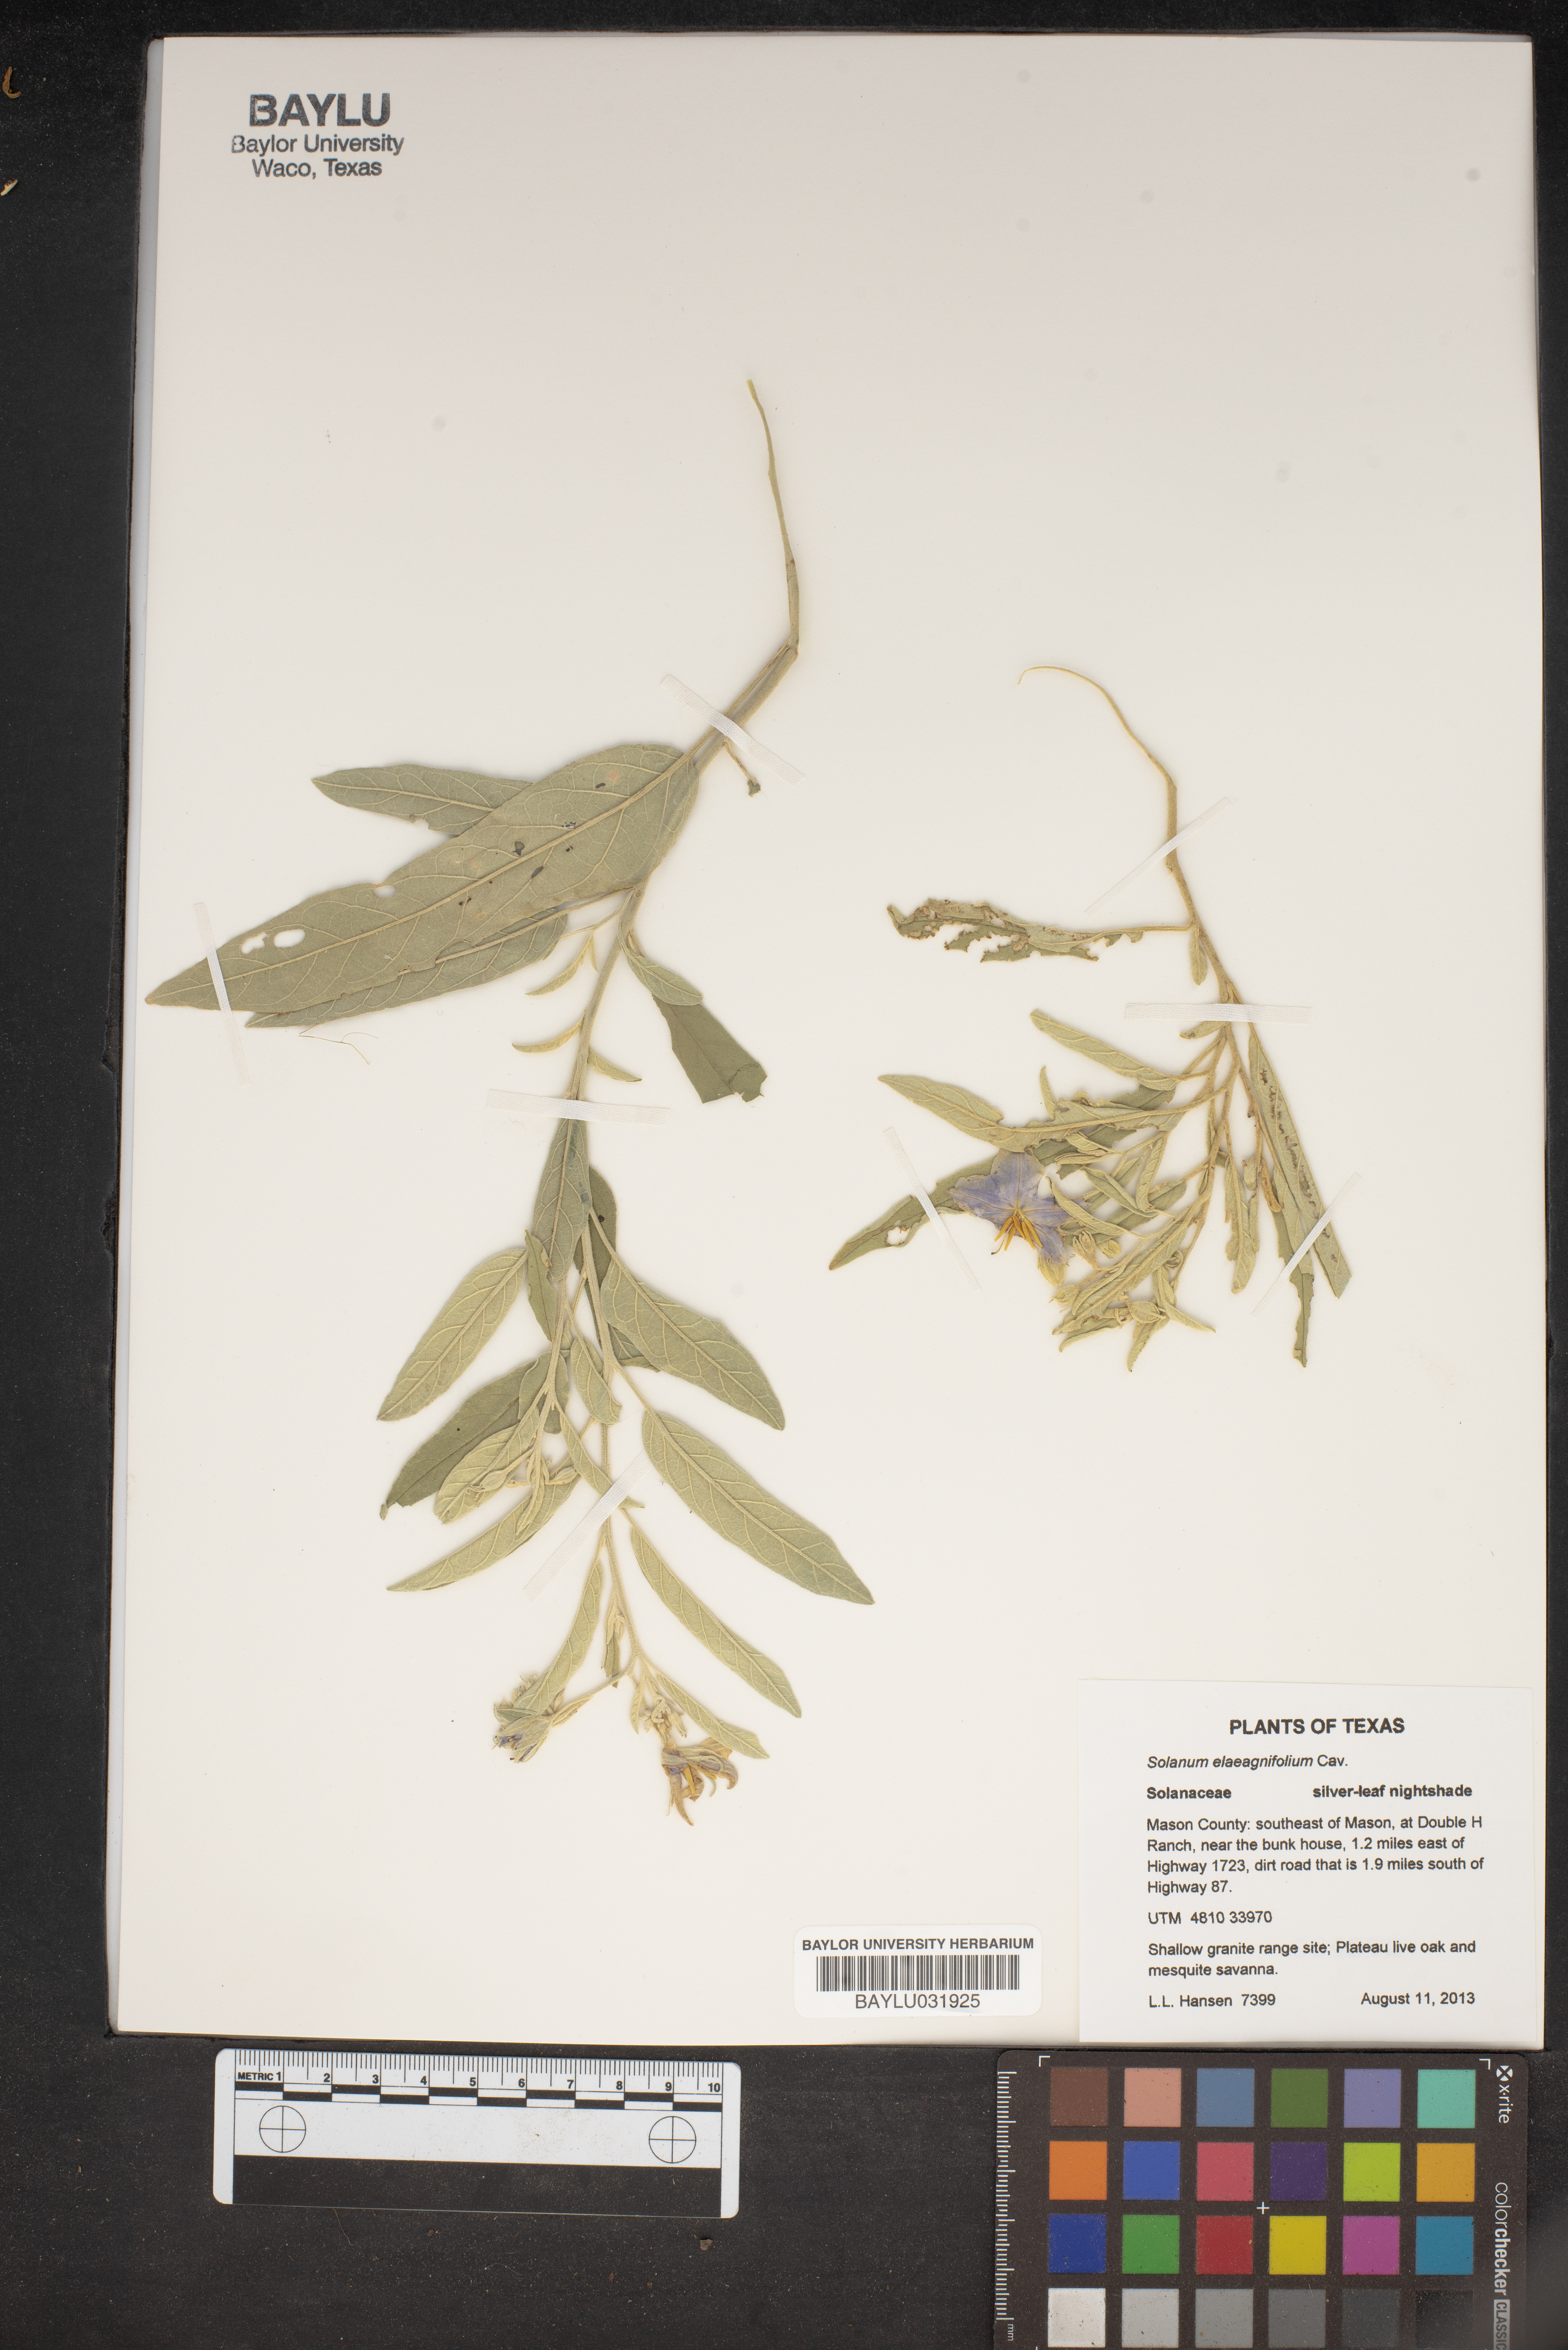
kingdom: Plantae
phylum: Tracheophyta
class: Magnoliopsida
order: Solanales
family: Solanaceae
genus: Solanum
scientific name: Solanum elaeagnifolium
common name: Silverleaf nightshade
